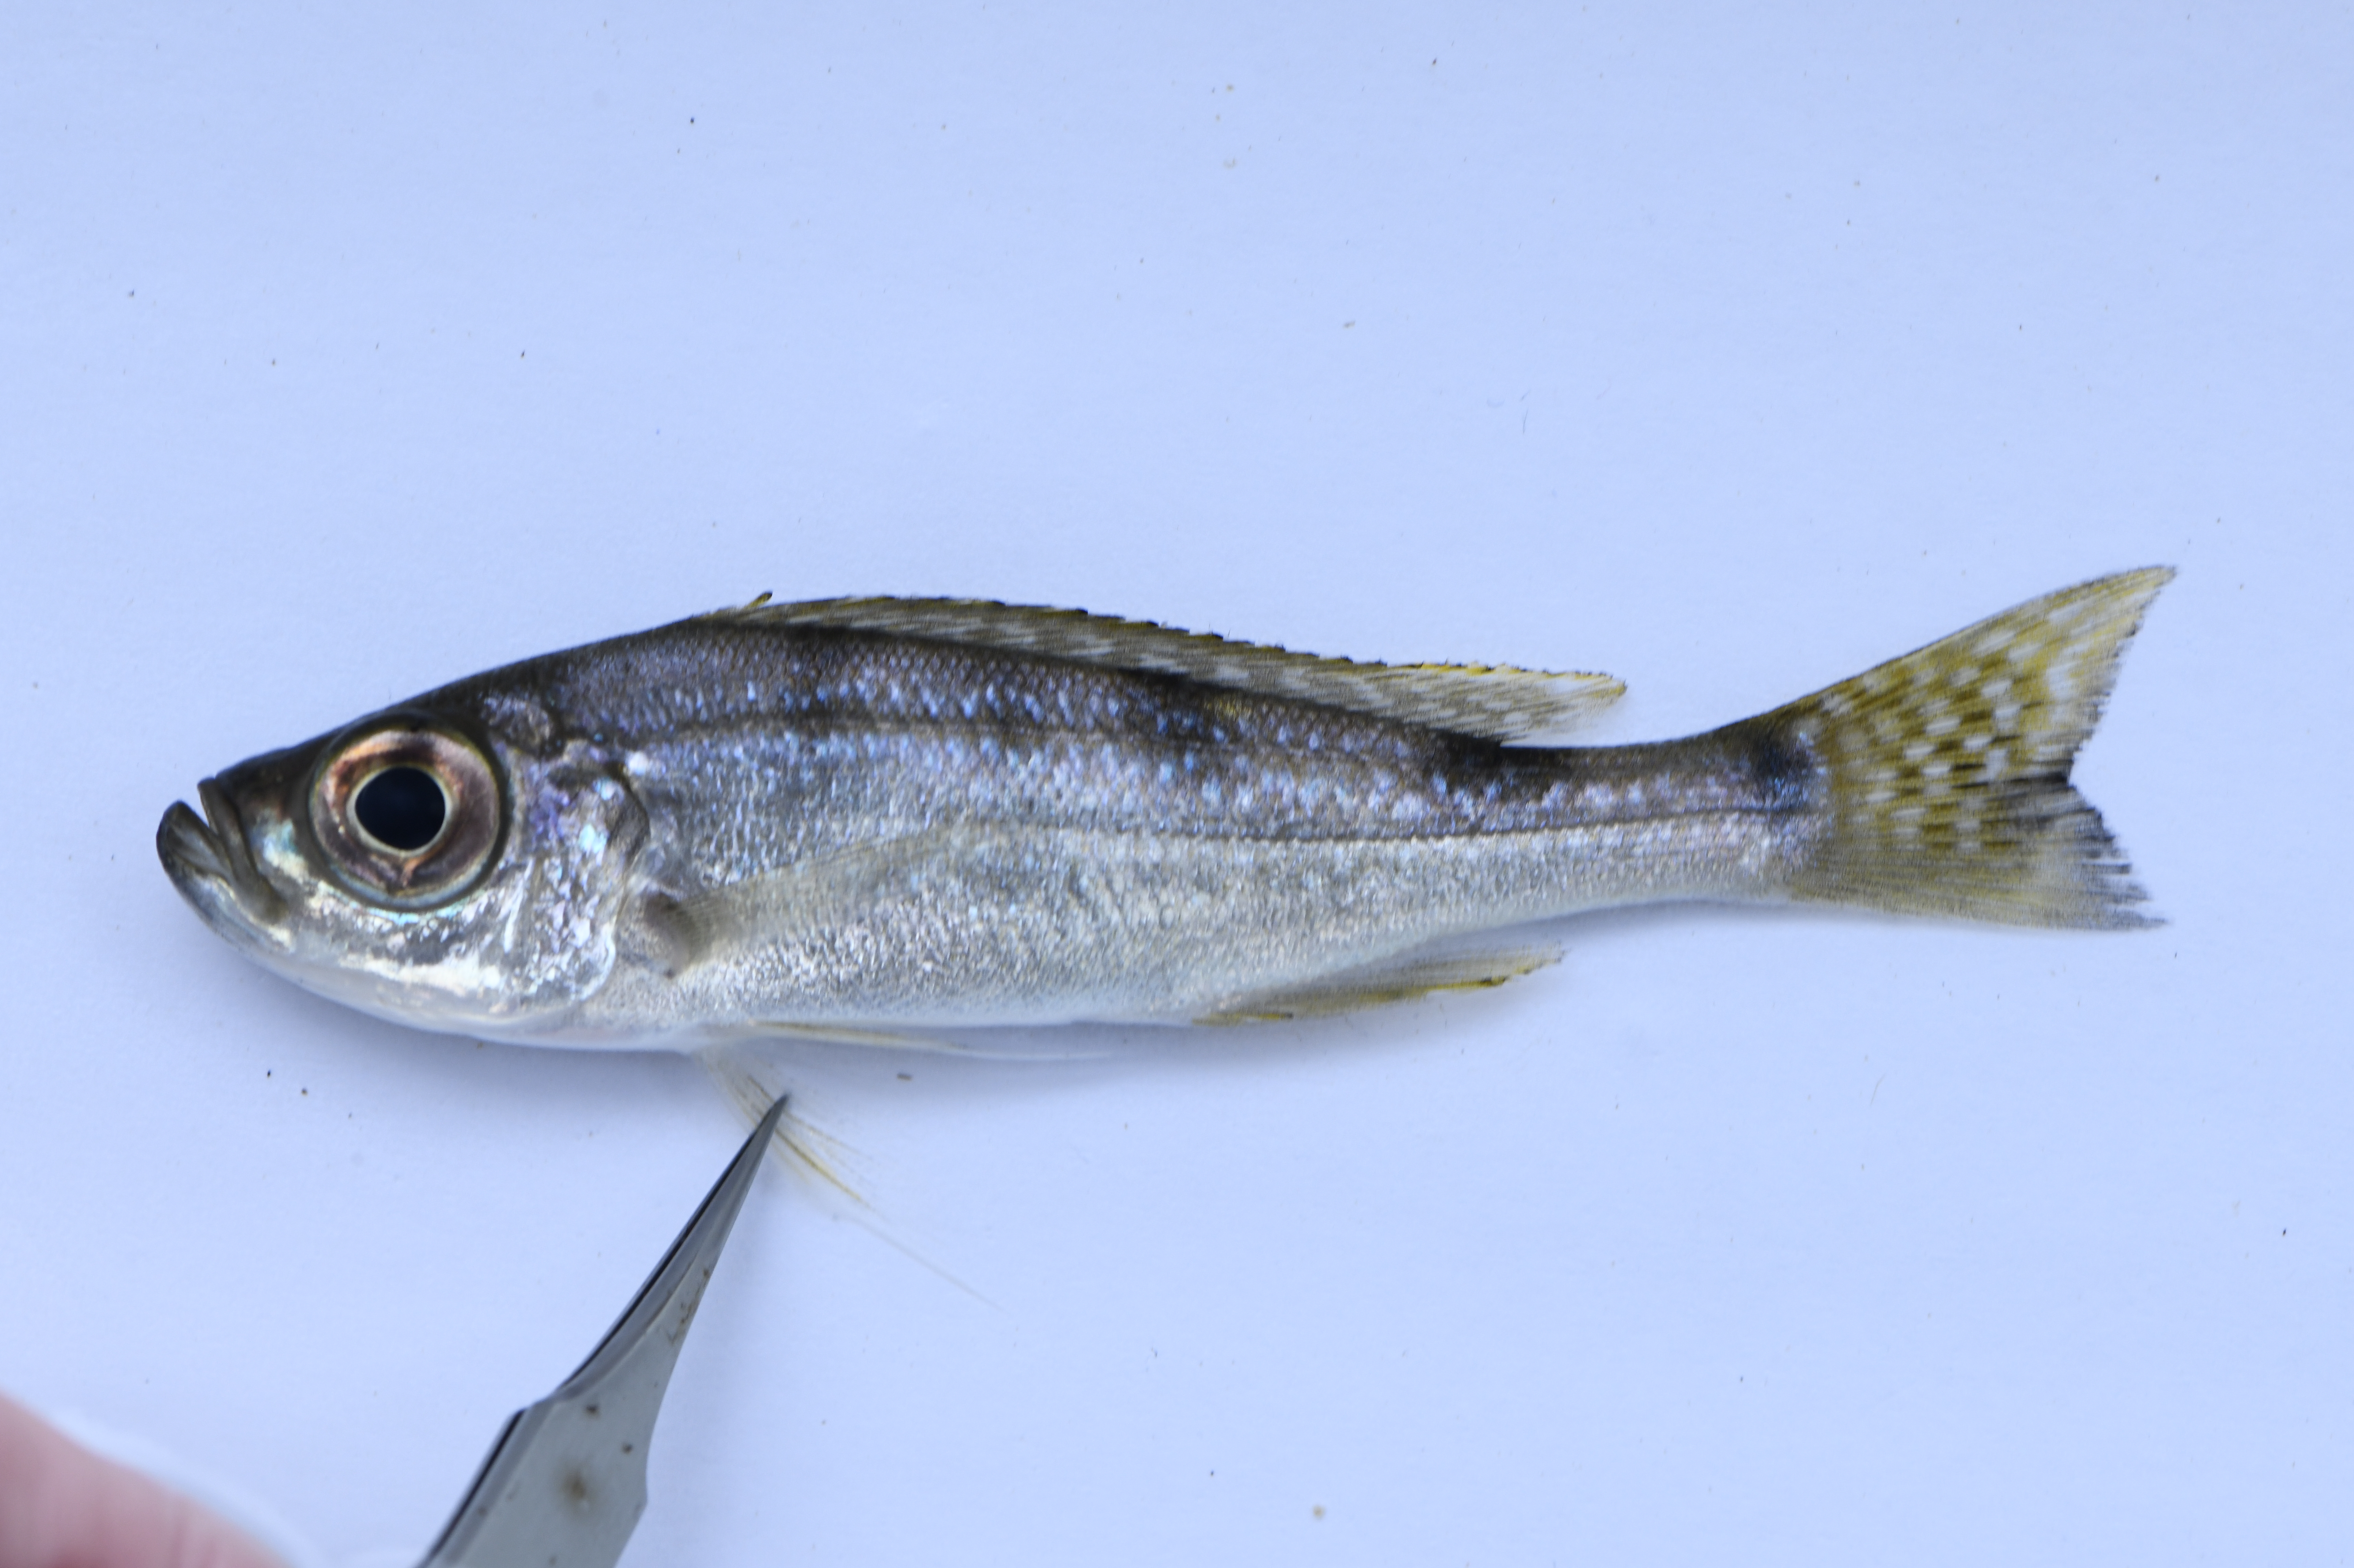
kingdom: Animalia
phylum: Chordata
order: Perciformes
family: Cichlidae
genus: Haplotaxodon
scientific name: Haplotaxodon microlepis
